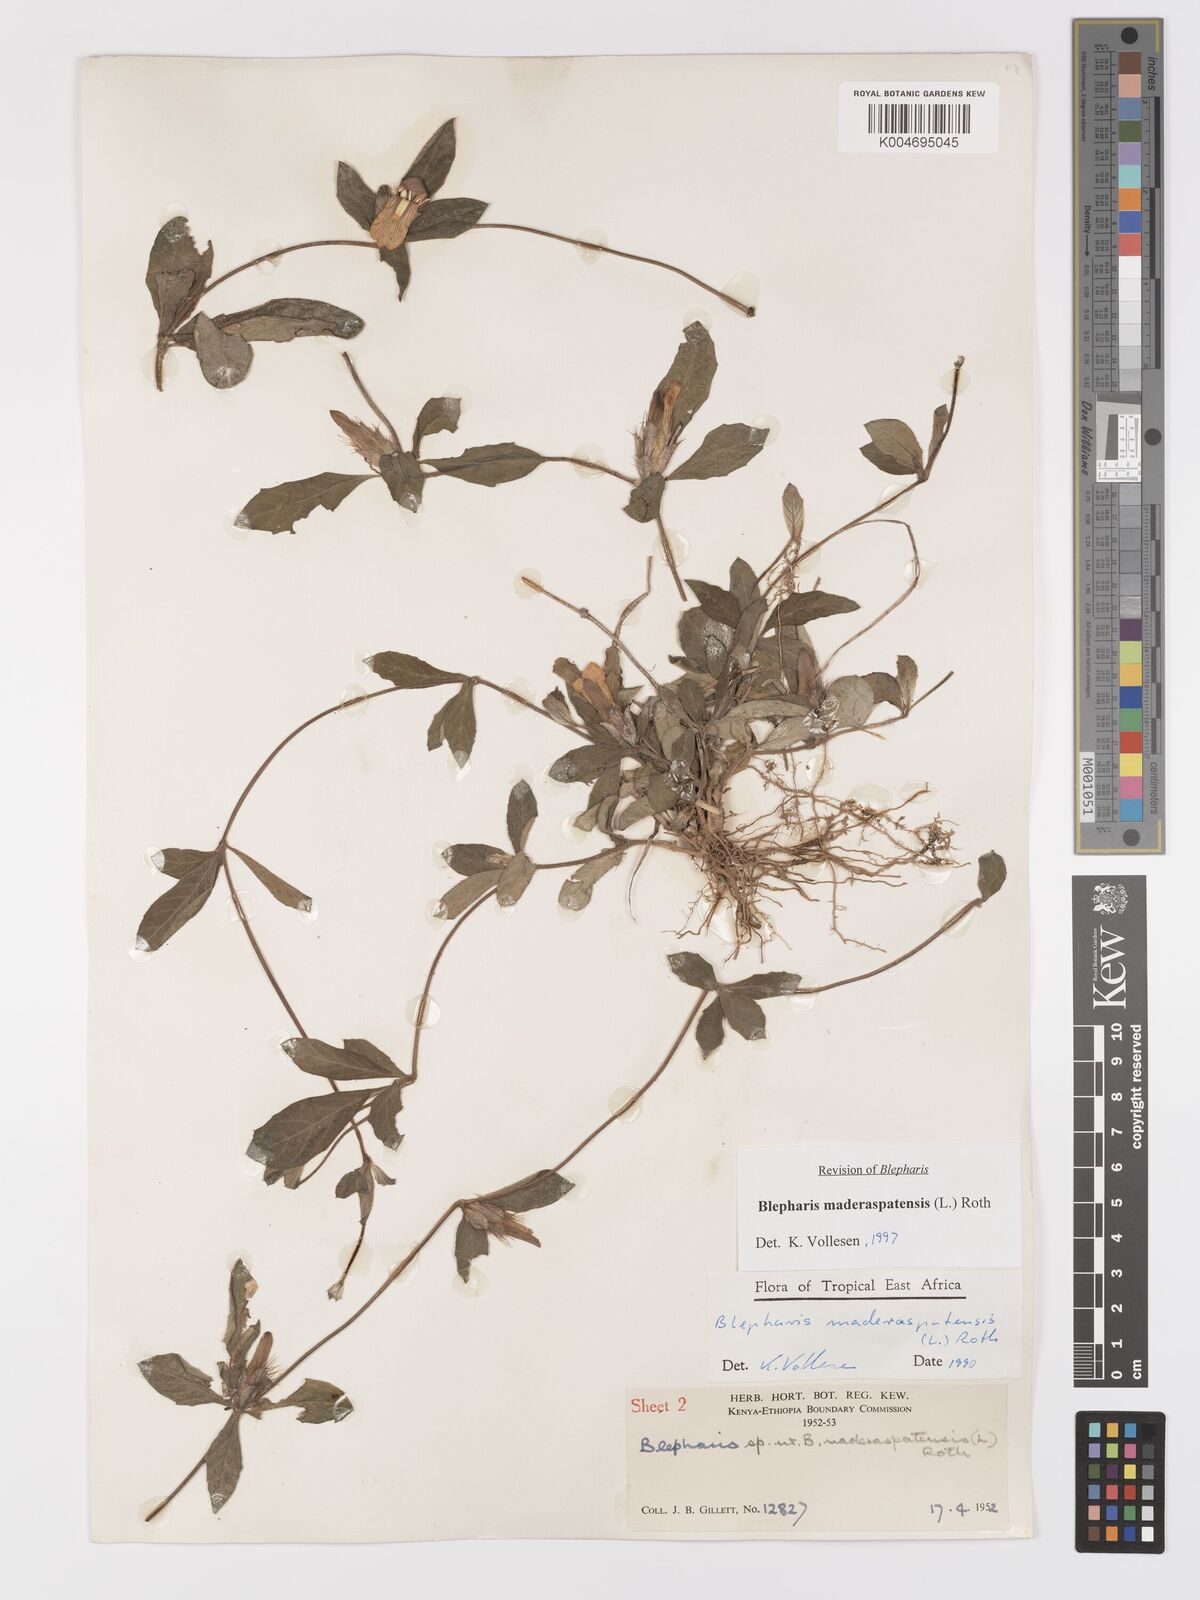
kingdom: Plantae
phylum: Tracheophyta
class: Magnoliopsida
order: Lamiales
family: Acanthaceae
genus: Blepharis
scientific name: Blepharis maderaspatensis
